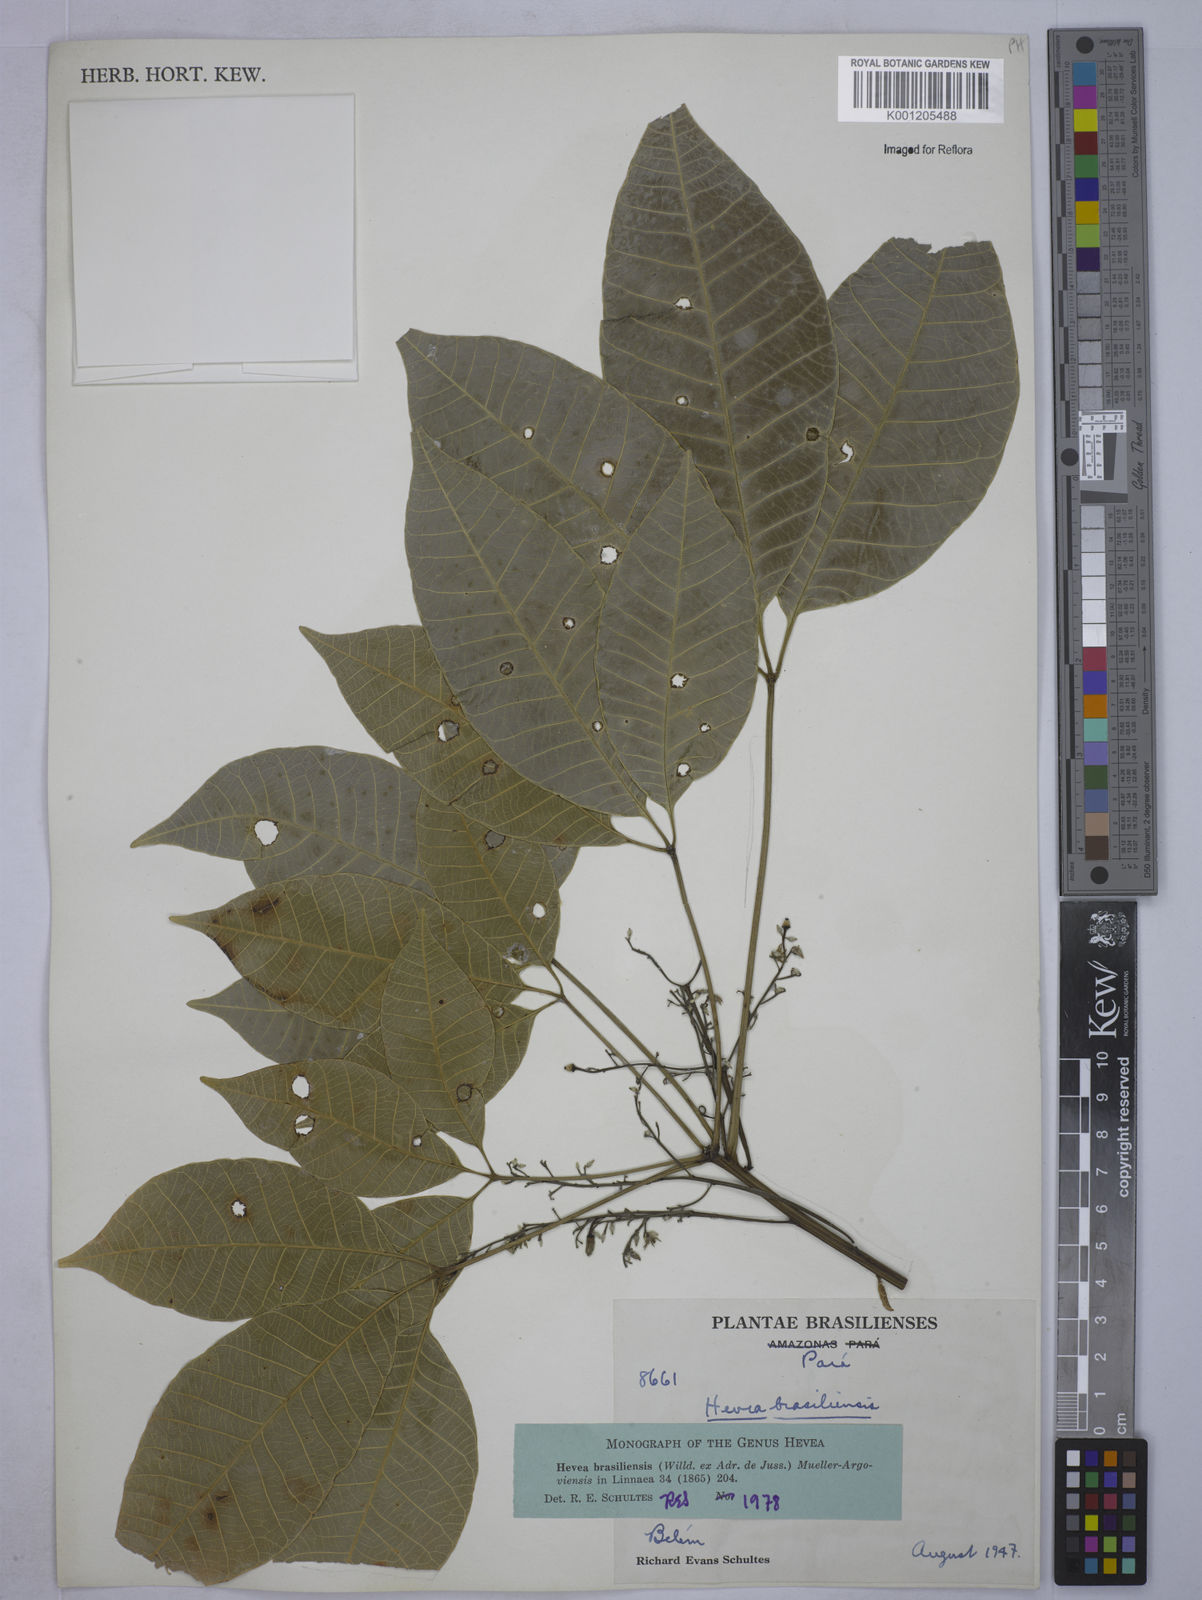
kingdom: Plantae
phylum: Tracheophyta
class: Magnoliopsida
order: Malpighiales
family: Euphorbiaceae
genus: Hevea
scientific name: Hevea
